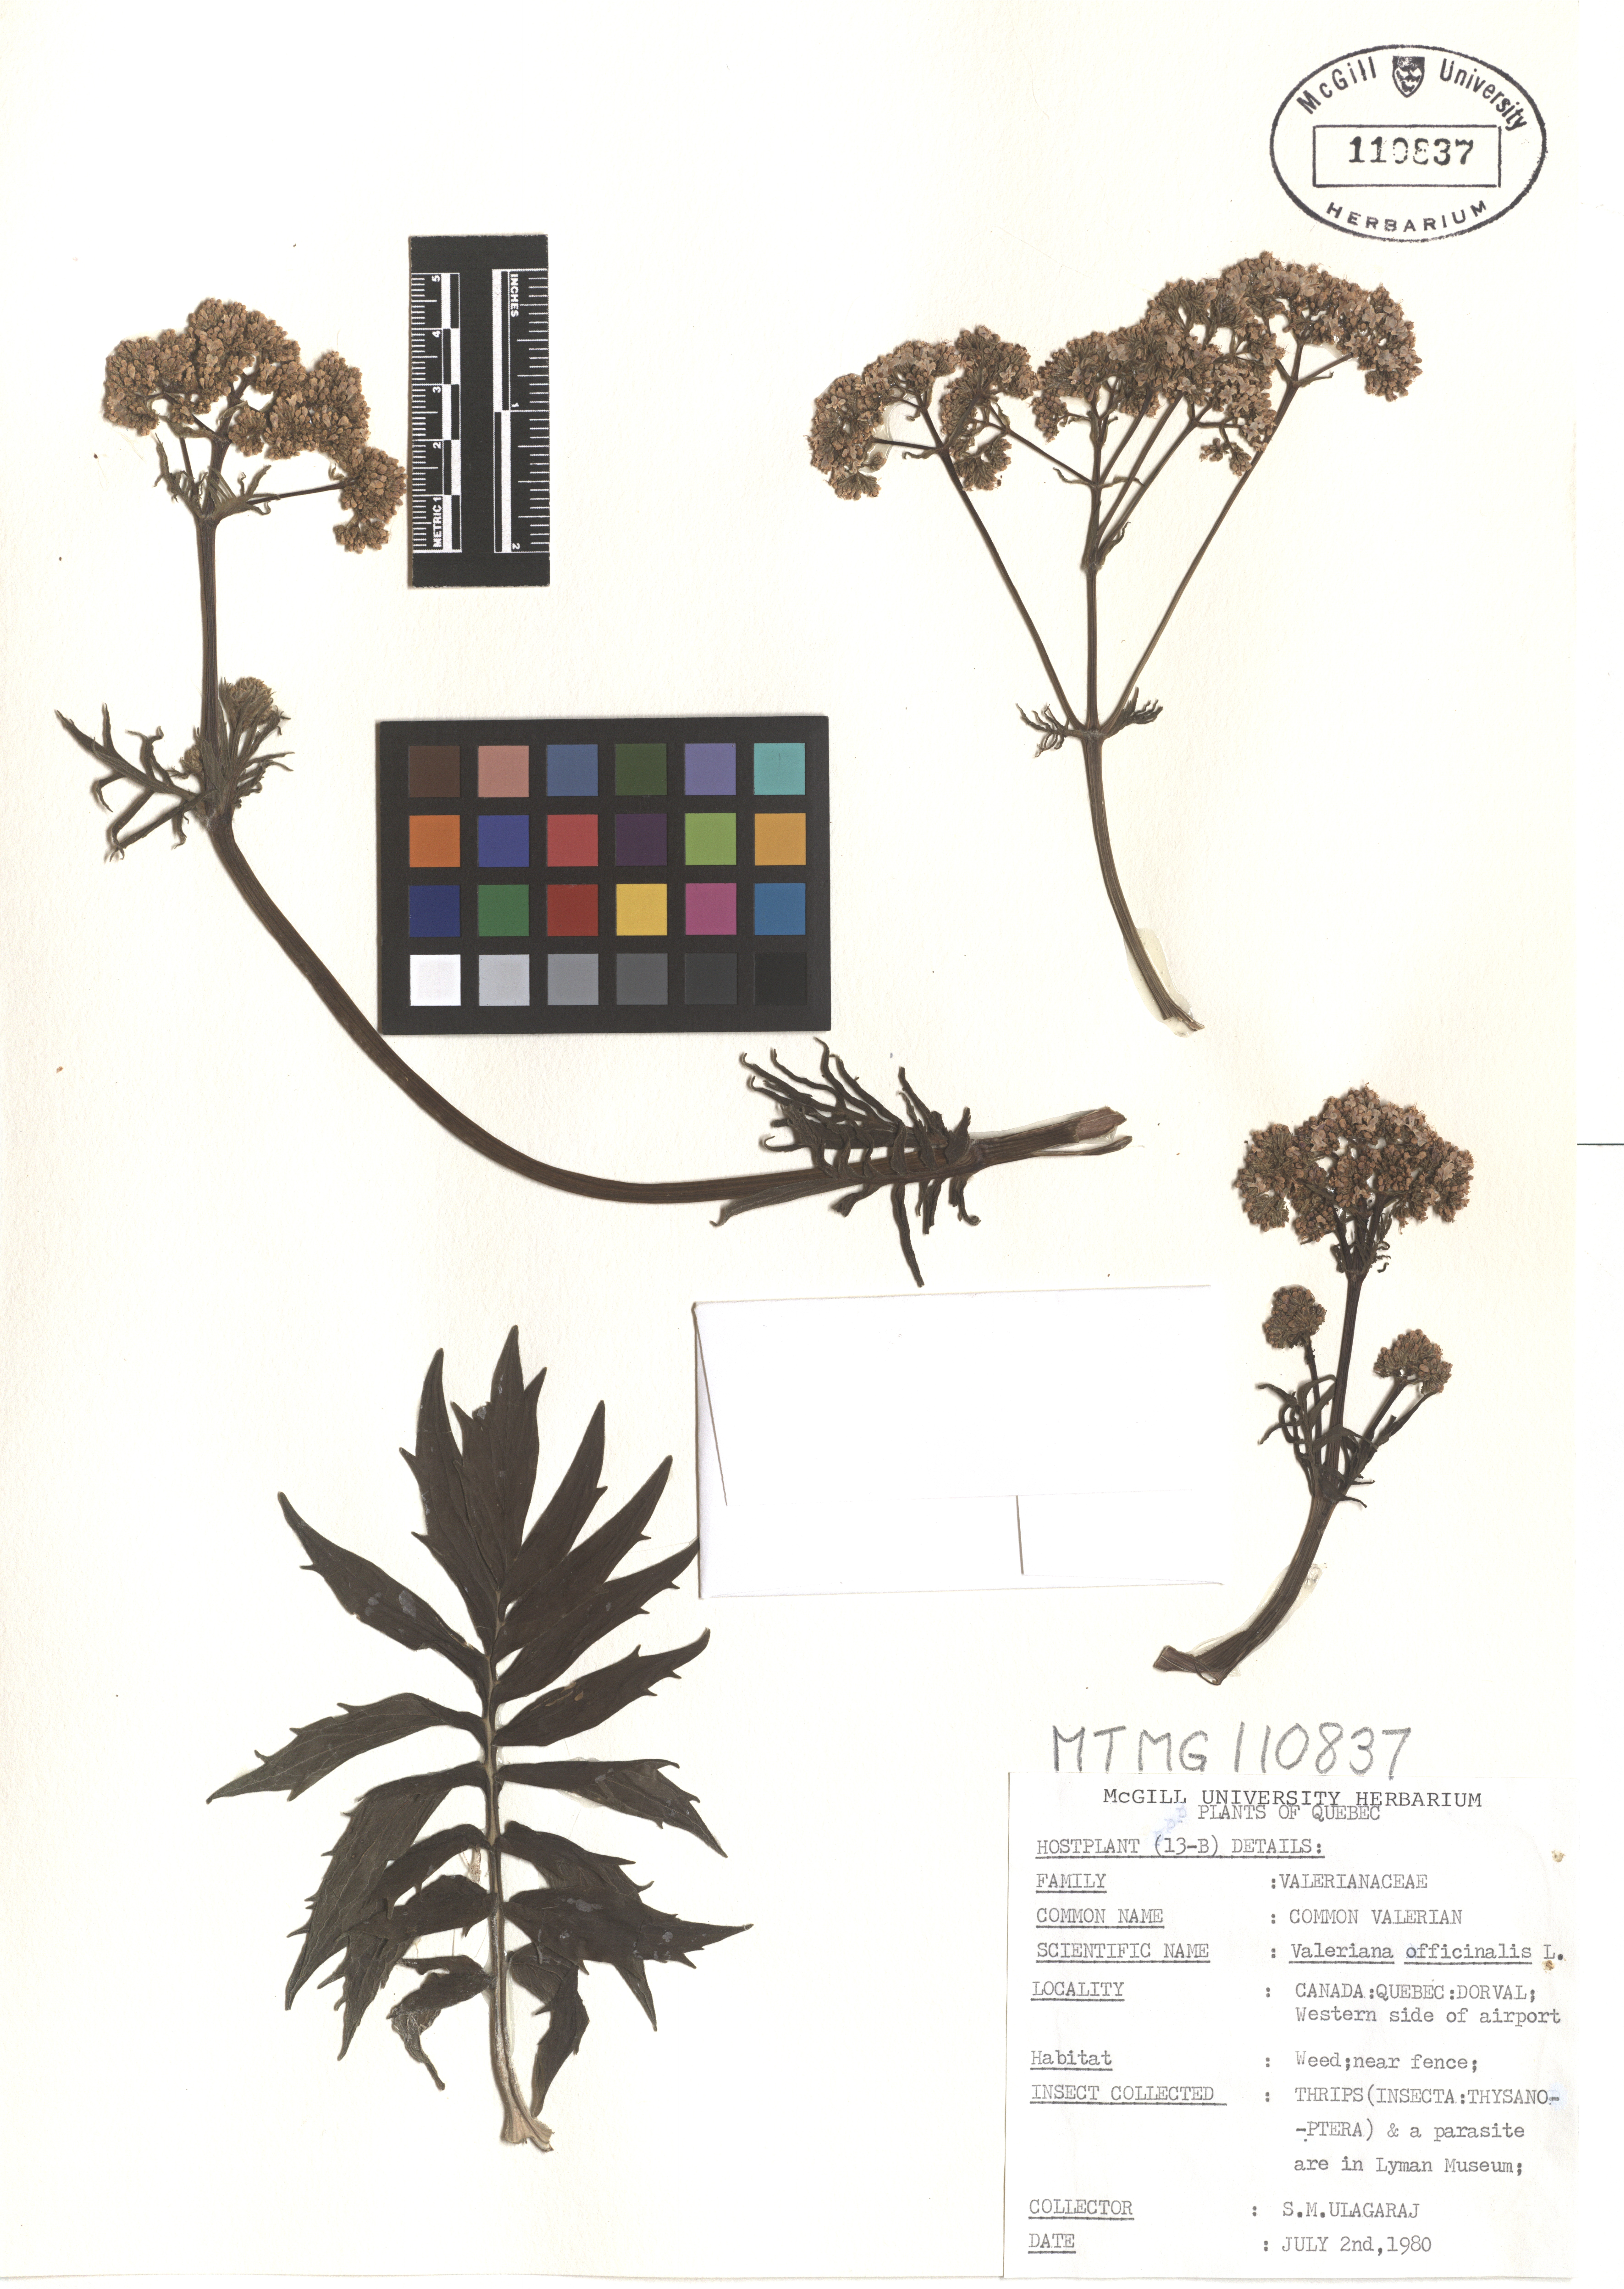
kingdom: Plantae
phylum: Tracheophyta
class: Magnoliopsida
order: Dipsacales
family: Caprifoliaceae
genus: Valeriana
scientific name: Valeriana officinalis
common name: Common valerian
